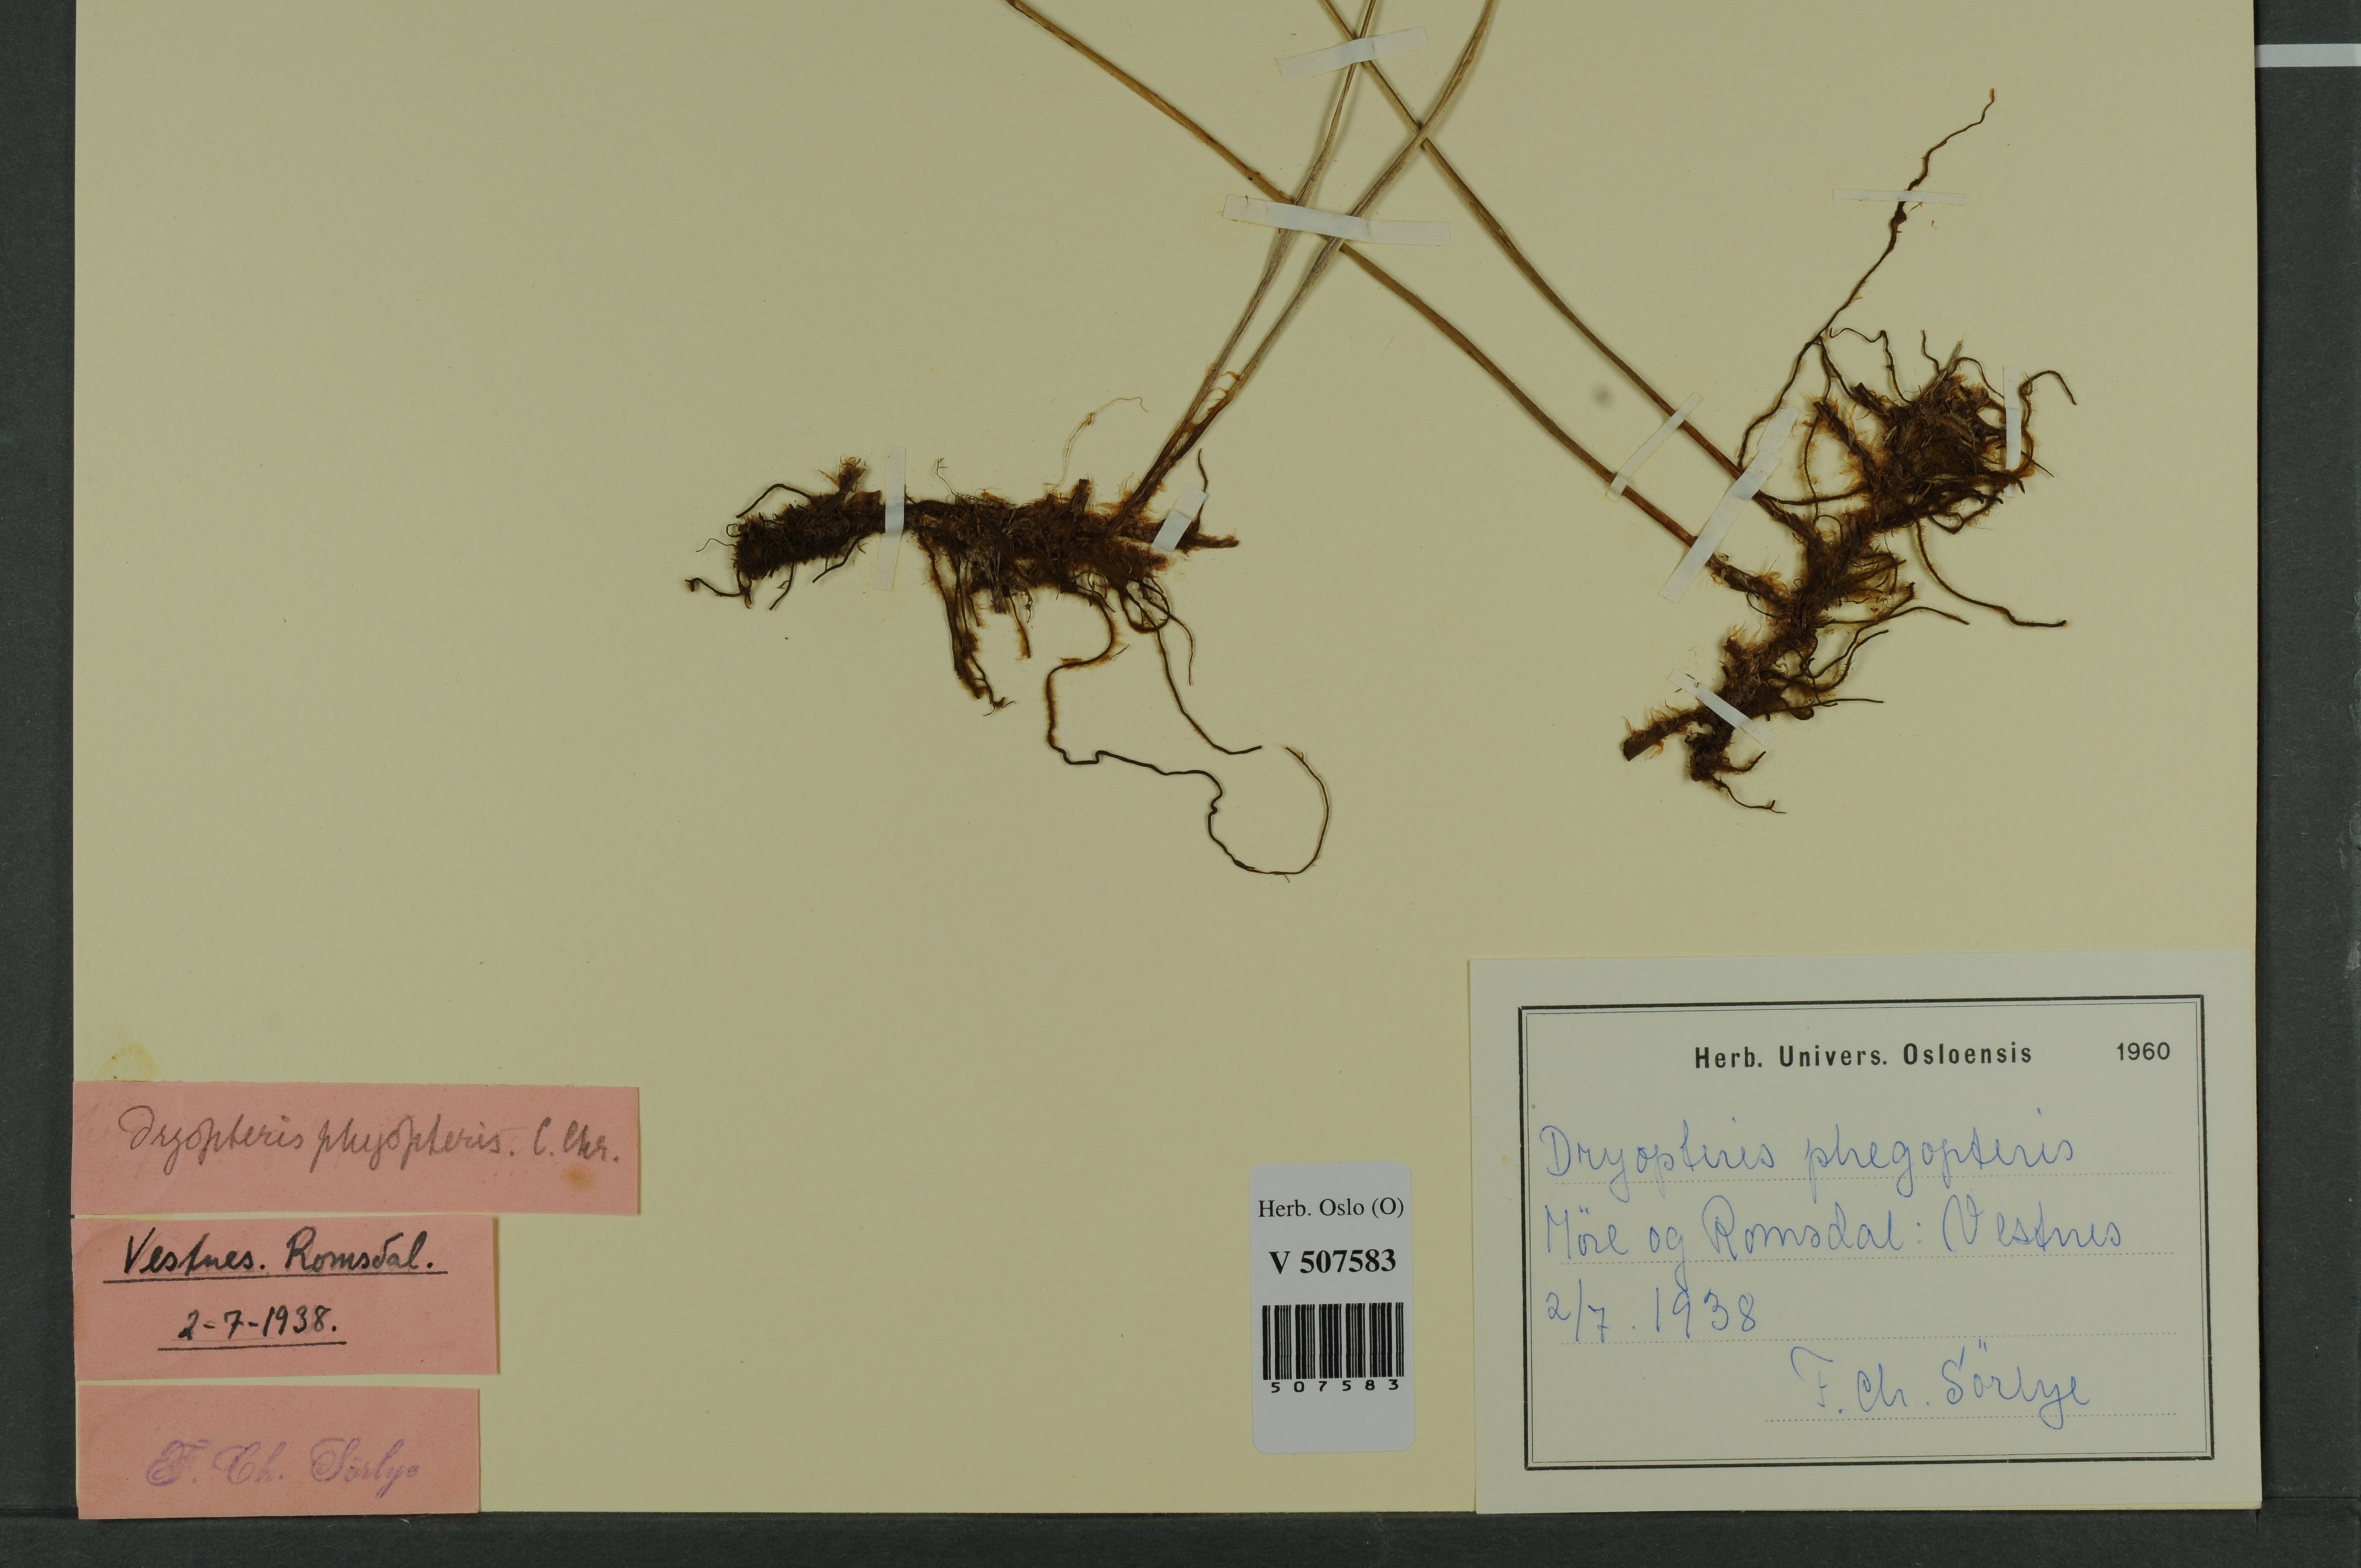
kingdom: Plantae
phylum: Tracheophyta
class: Polypodiopsida
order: Polypodiales
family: Thelypteridaceae
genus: Phegopteris
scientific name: Phegopteris connectilis
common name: Beech fern
